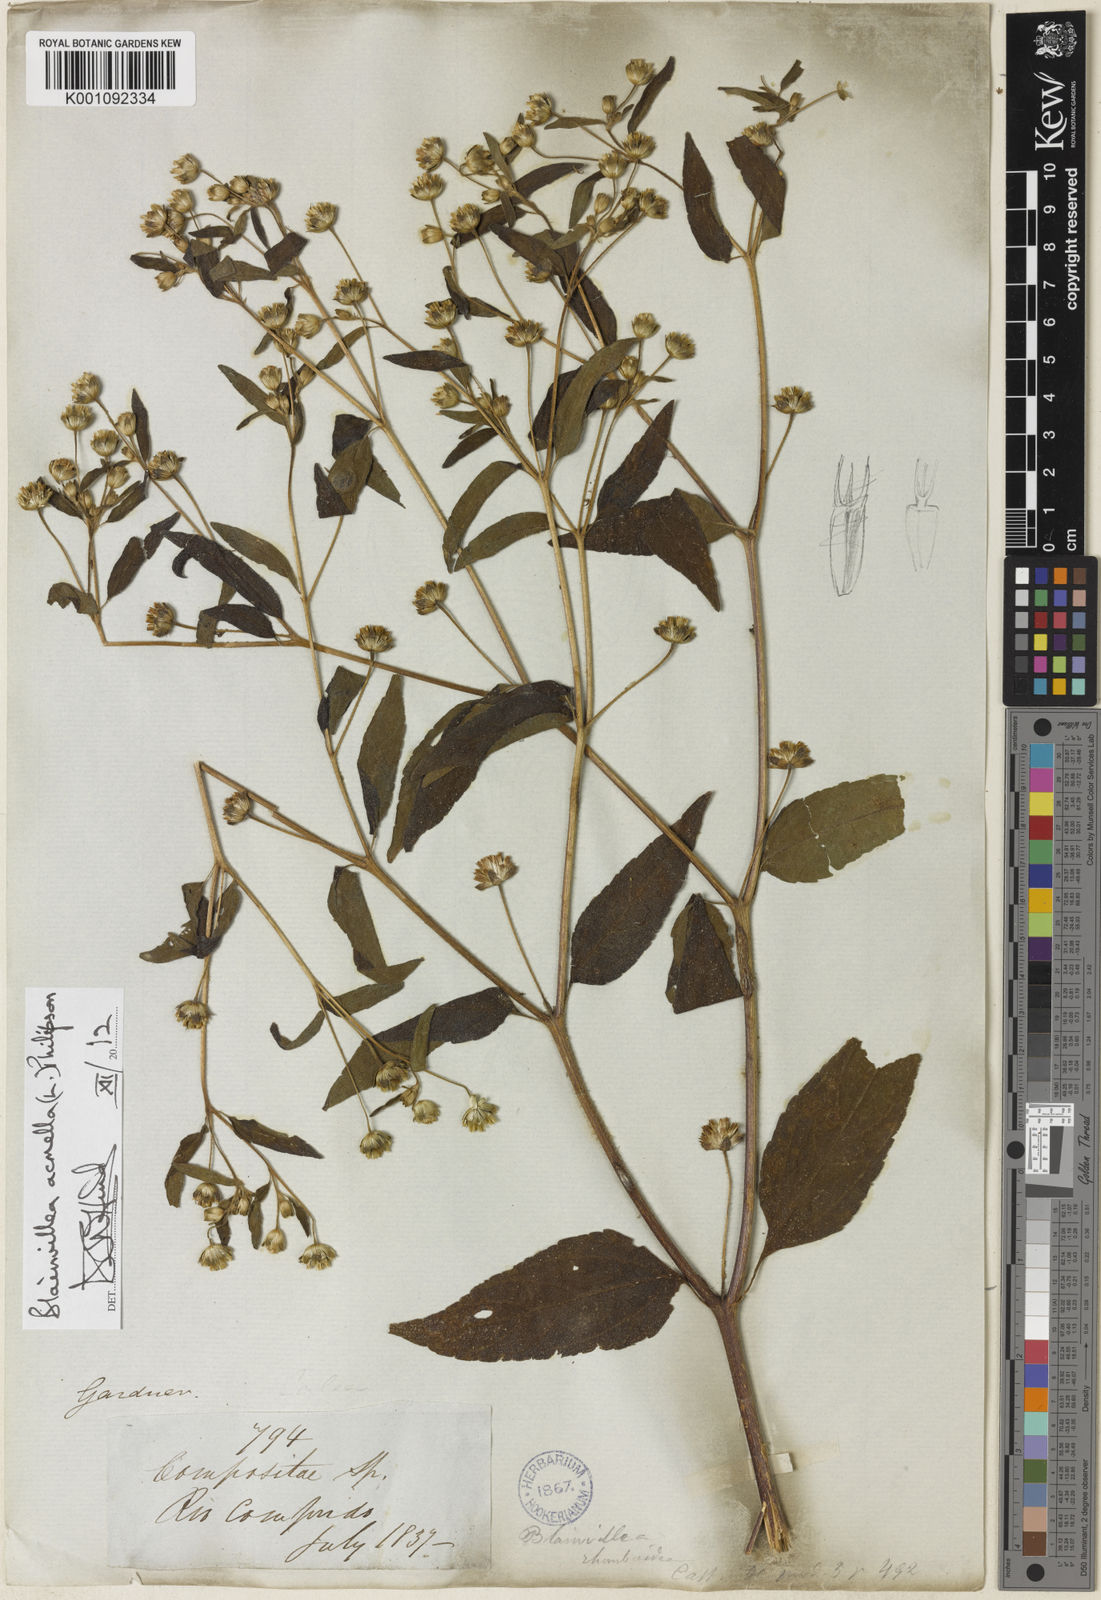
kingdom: Plantae
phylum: Tracheophyta
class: Magnoliopsida
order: Asterales
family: Asteraceae
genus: Blainvillea
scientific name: Blainvillea acmella
